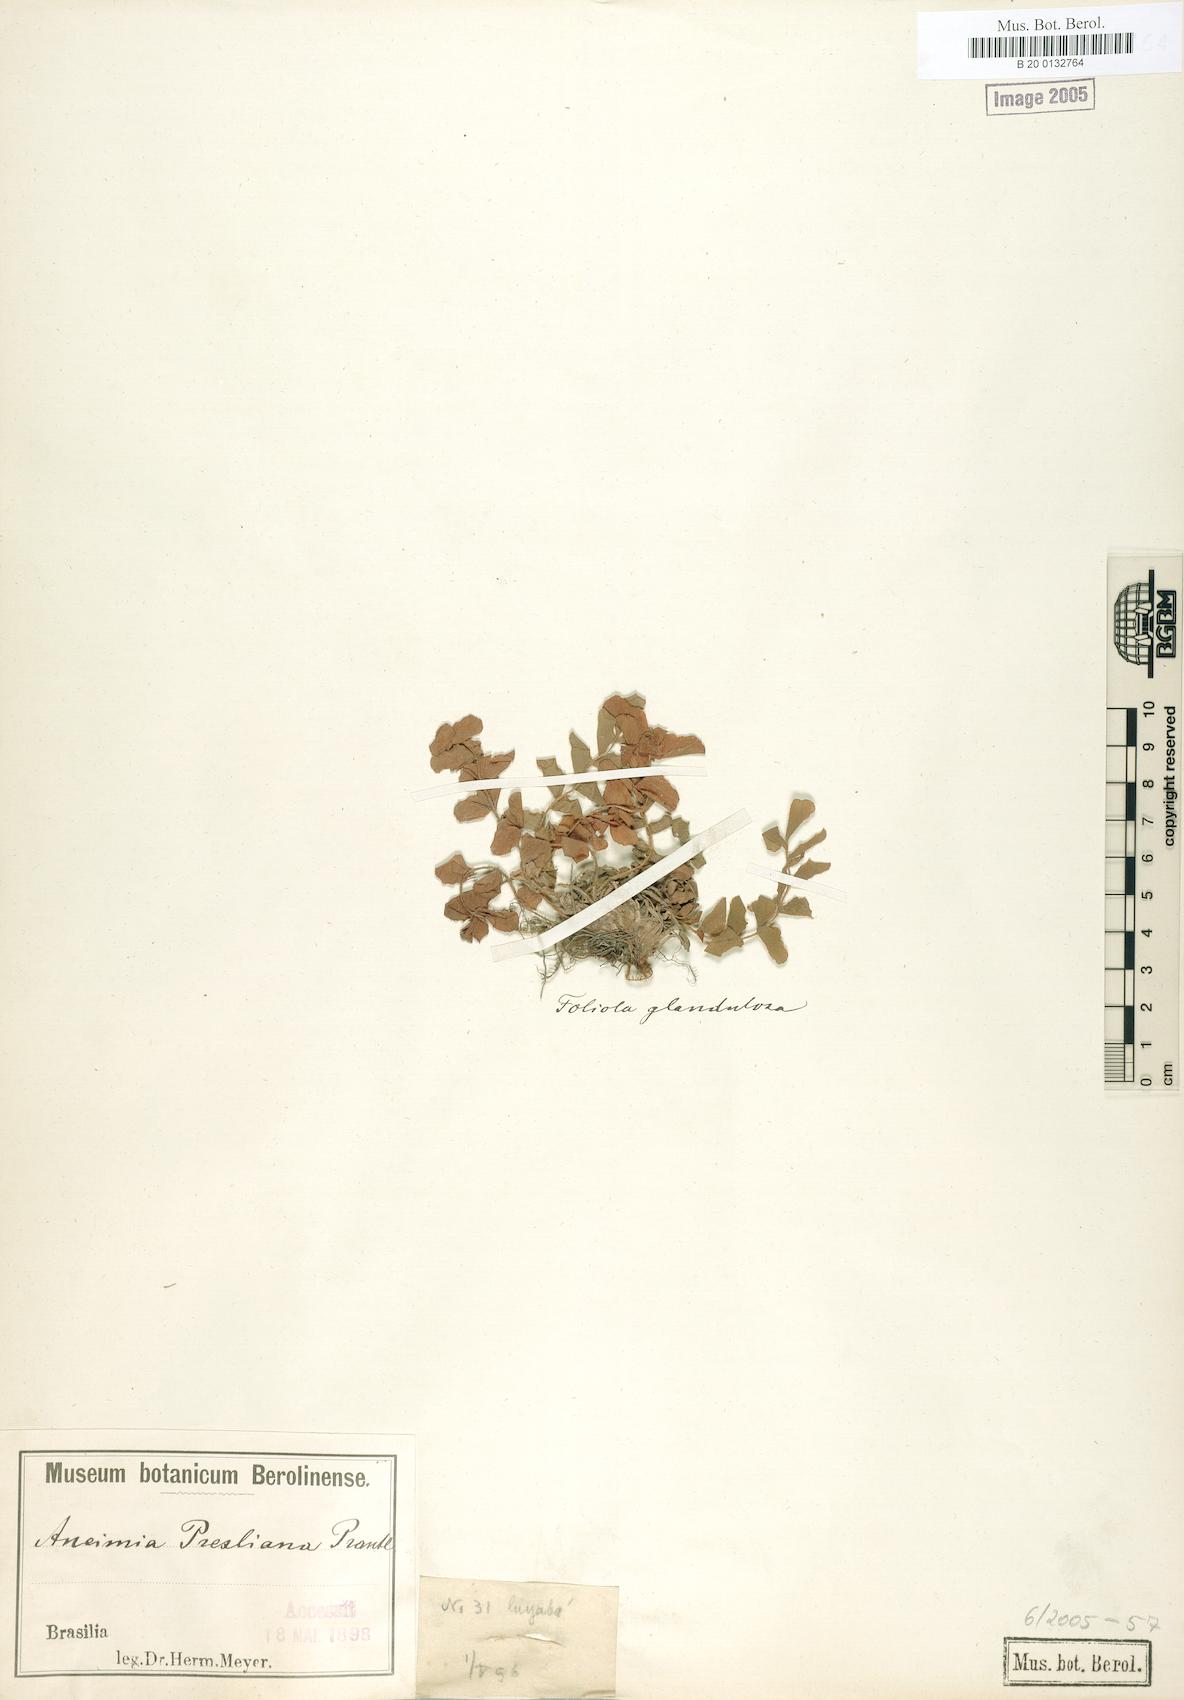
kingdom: Plantae
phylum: Tracheophyta
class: Polypodiopsida
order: Schizaeales
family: Anemiaceae
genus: Anemia
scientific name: Anemia presliana
